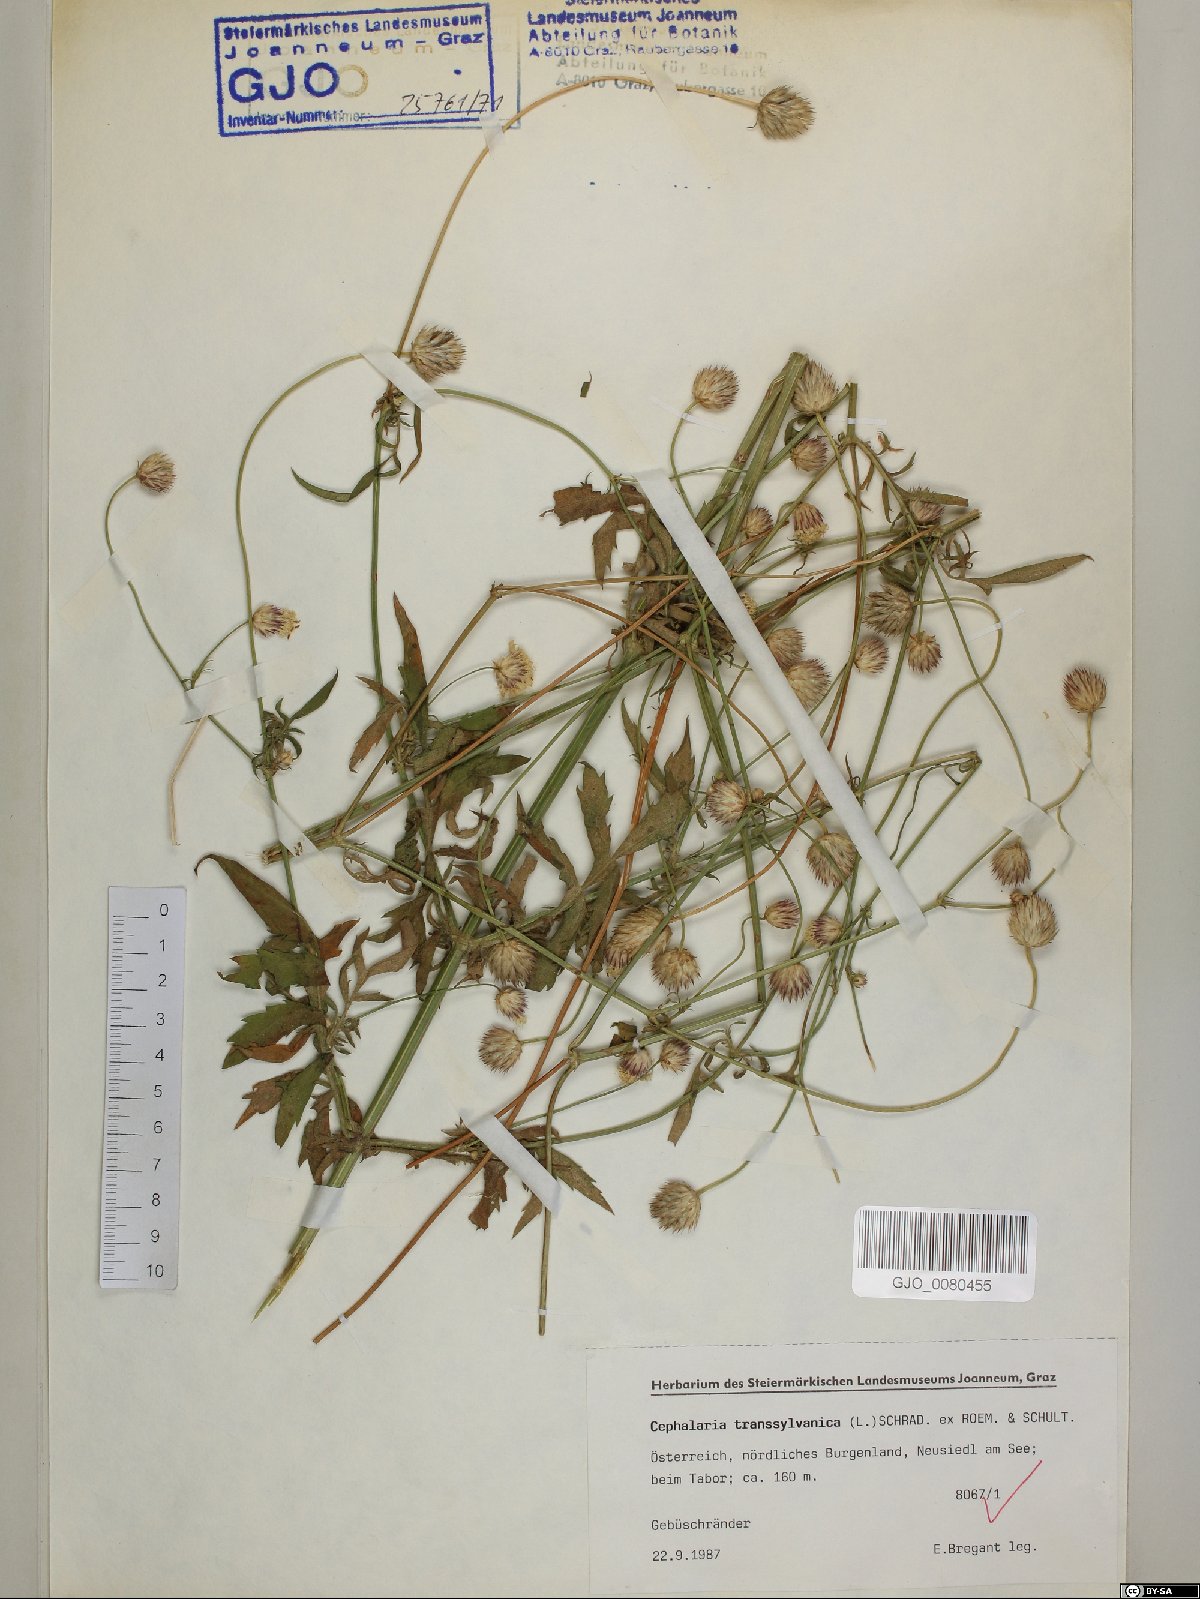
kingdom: Plantae
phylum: Tracheophyta
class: Magnoliopsida
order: Dipsacales
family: Caprifoliaceae
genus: Cephalaria
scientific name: Cephalaria transsylvanica
